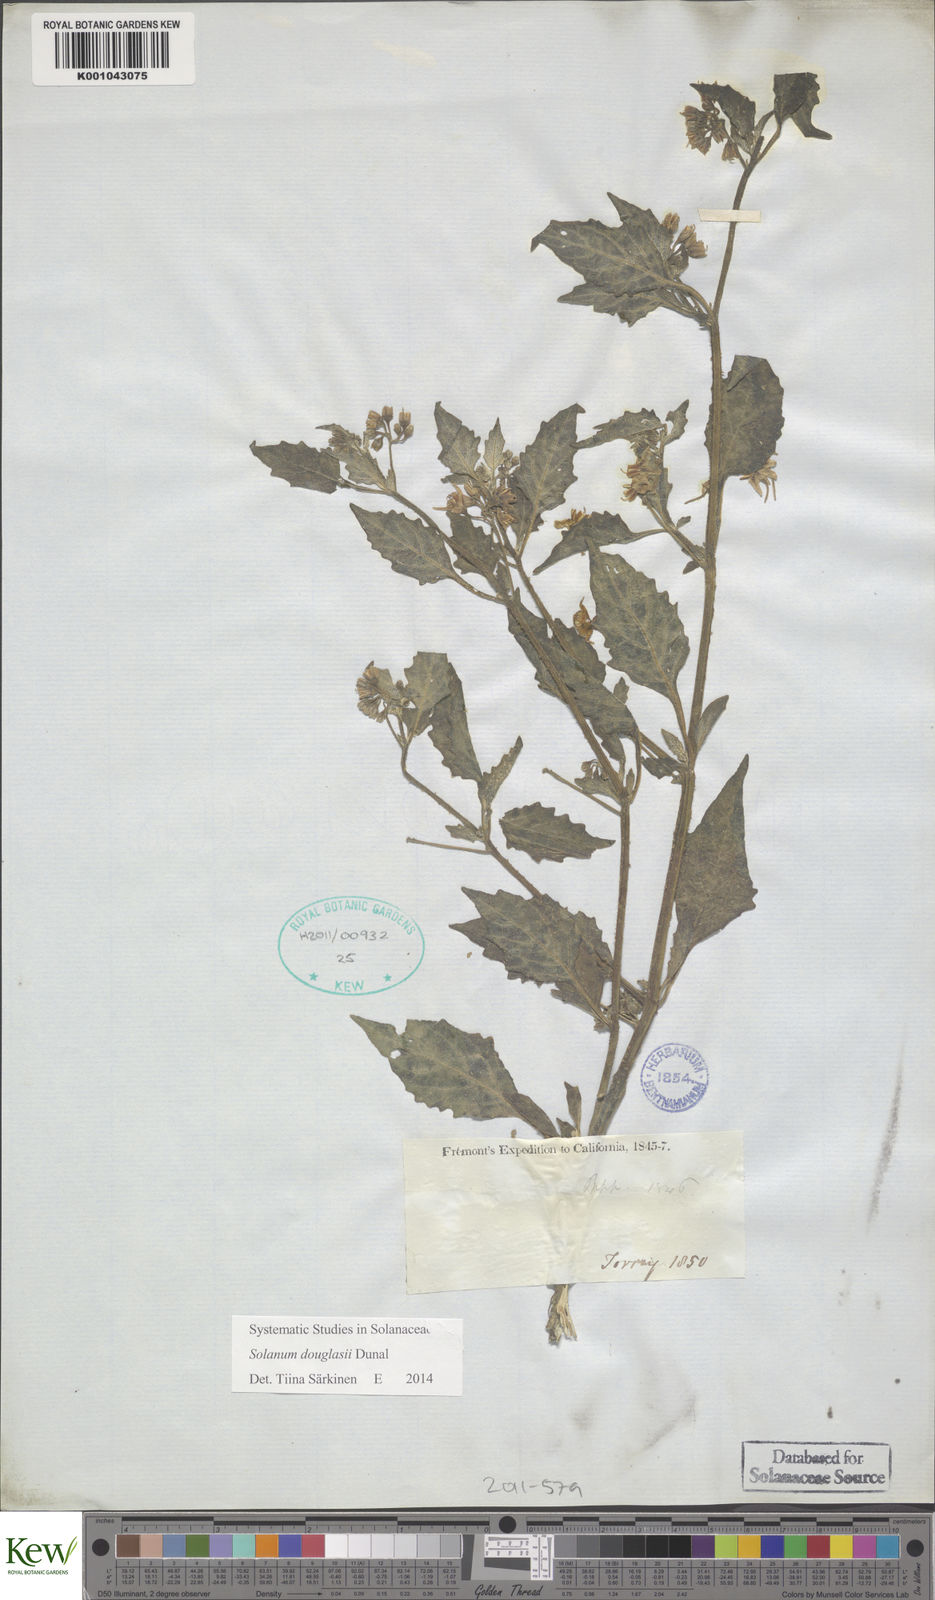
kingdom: Plantae
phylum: Tracheophyta
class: Magnoliopsida
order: Solanales
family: Solanaceae
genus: Solanum
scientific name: Solanum douglasii
